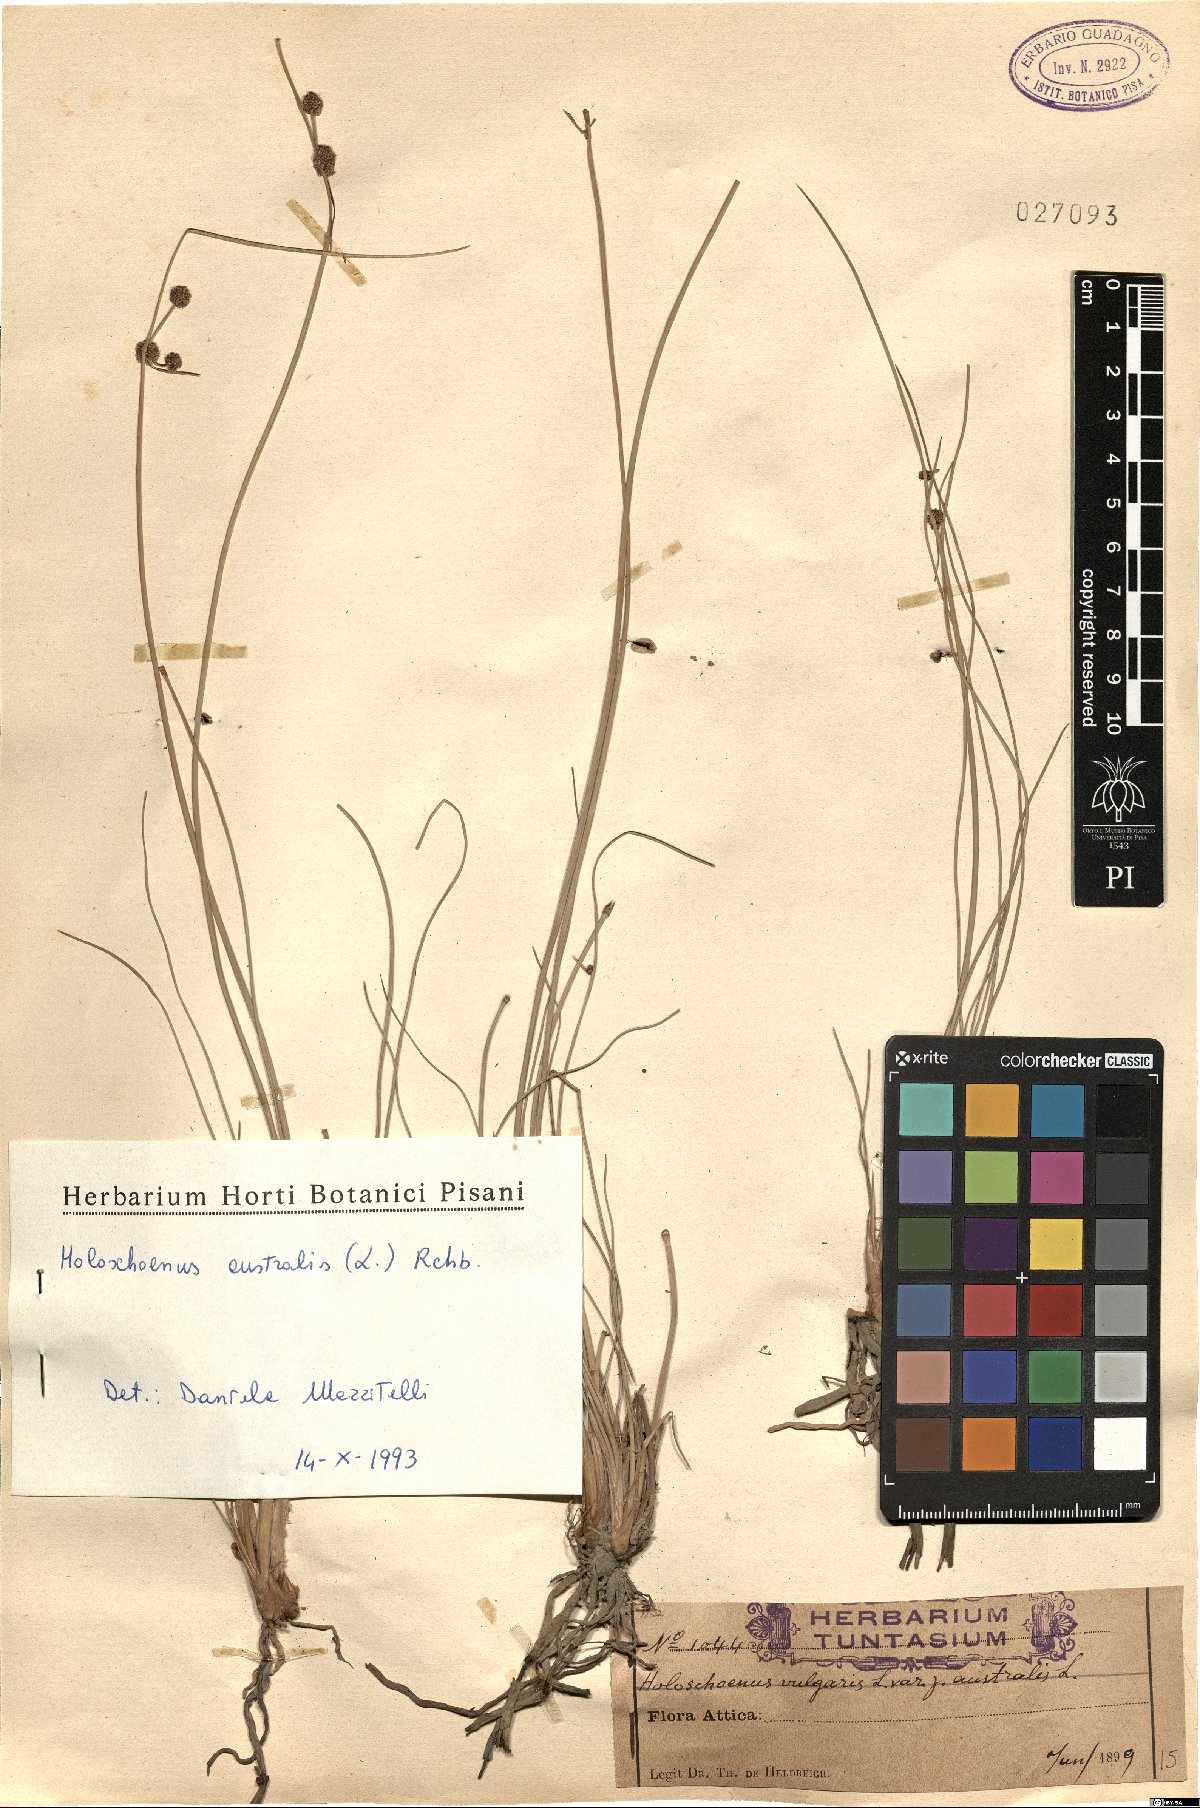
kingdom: Plantae
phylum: Tracheophyta
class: Liliopsida
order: Poales
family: Cyperaceae
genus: Scirpoides
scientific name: Scirpoides holoschoenus
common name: Round-headed club-rush
